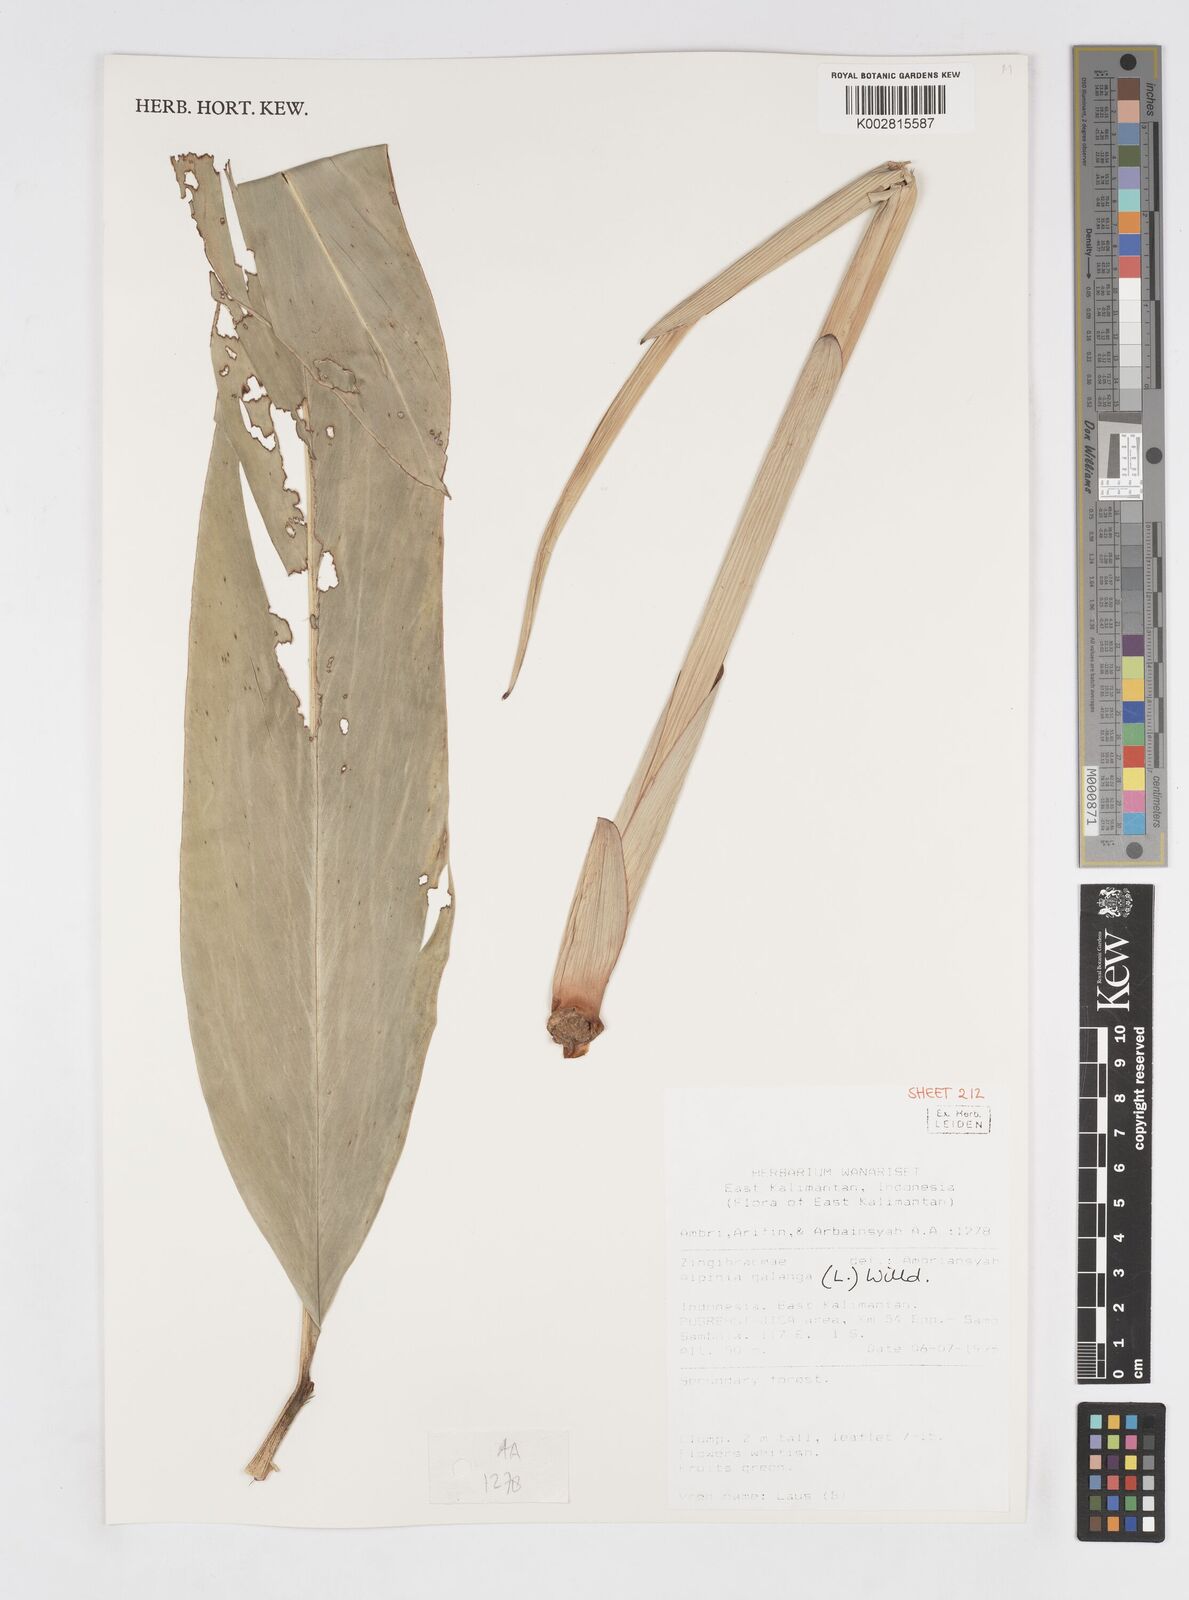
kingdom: Plantae
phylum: Tracheophyta
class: Liliopsida
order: Zingiberales
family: Zingiberaceae
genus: Alpinia
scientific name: Alpinia galanga
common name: Siamese-ginger
